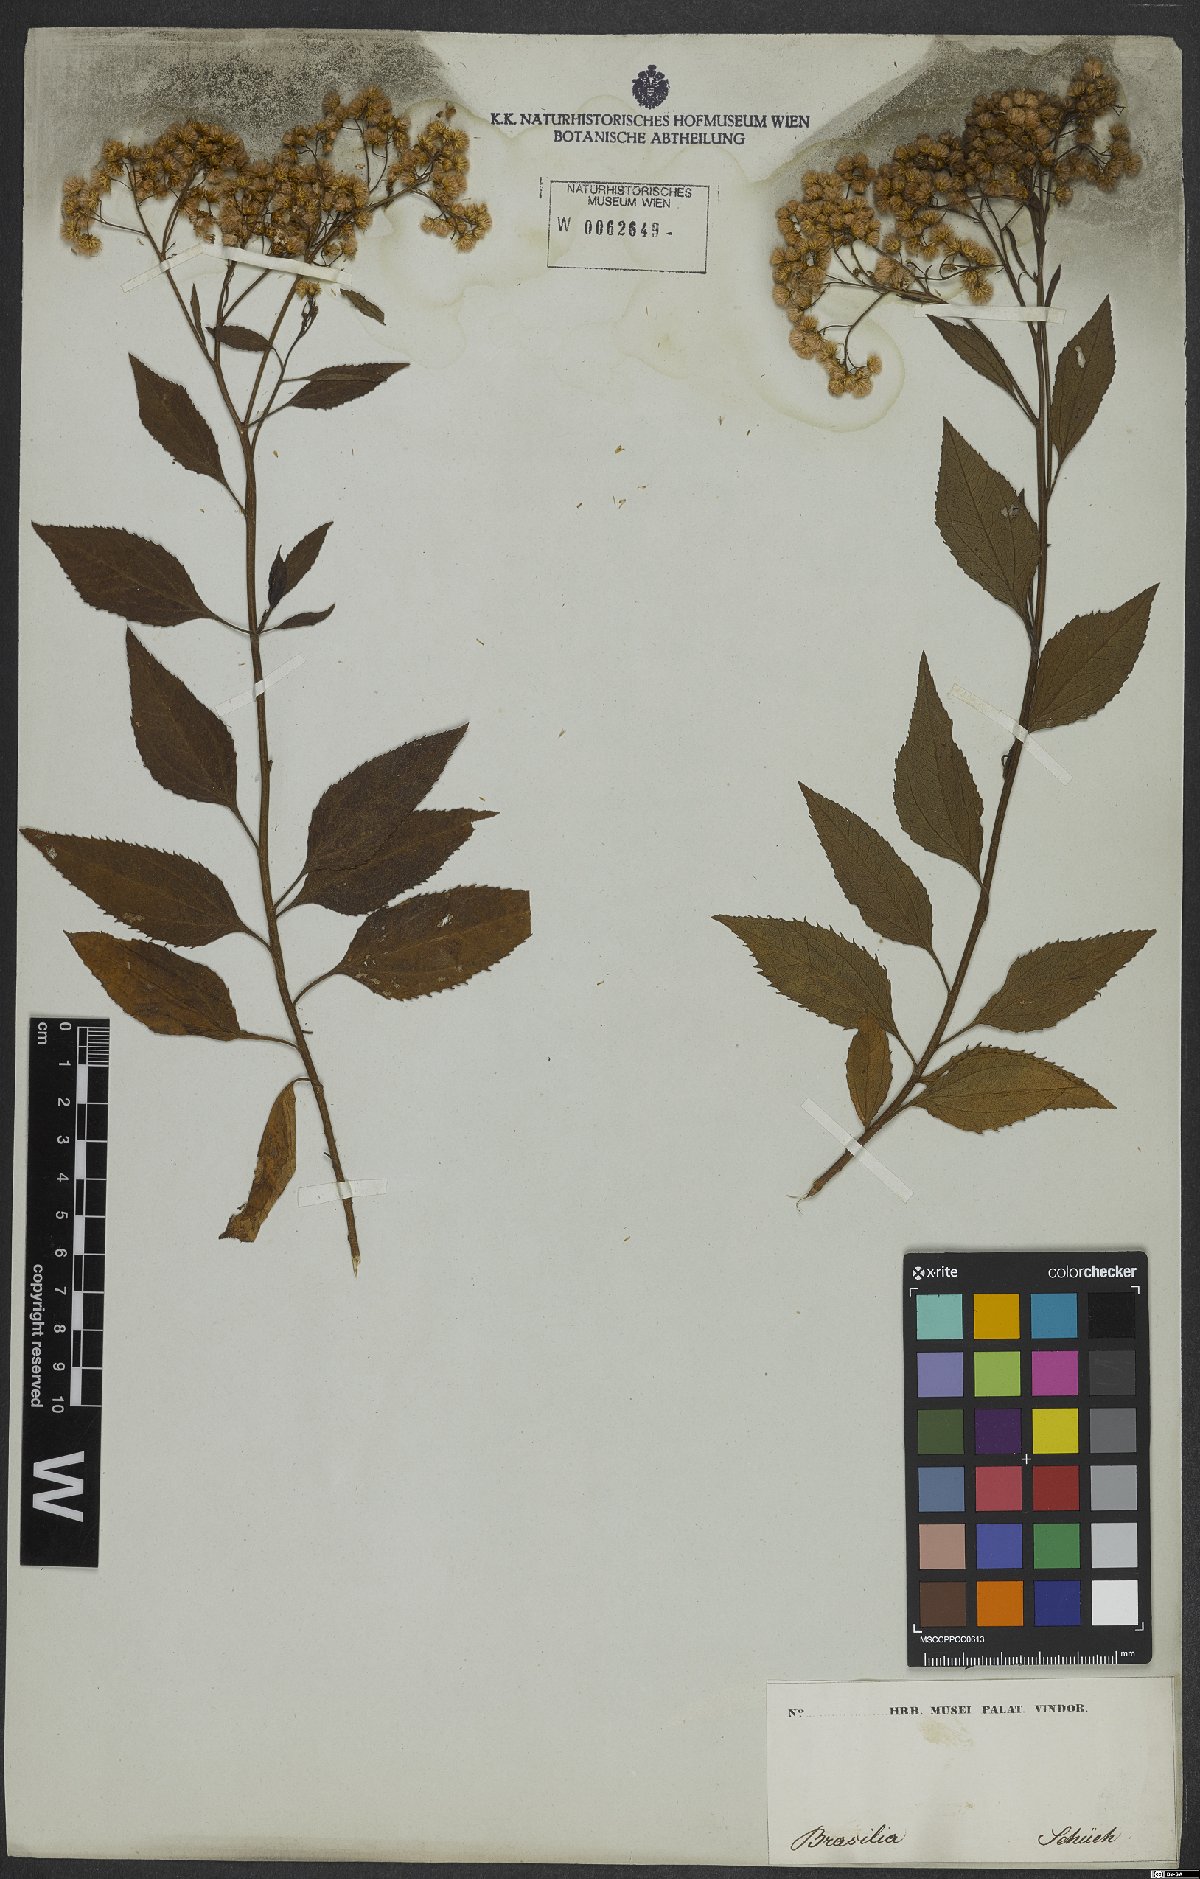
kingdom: Plantae
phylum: Tracheophyta
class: Magnoliopsida
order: Asterales
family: Asteraceae
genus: Archibaccharis
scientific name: Archibaccharis vulneraria
